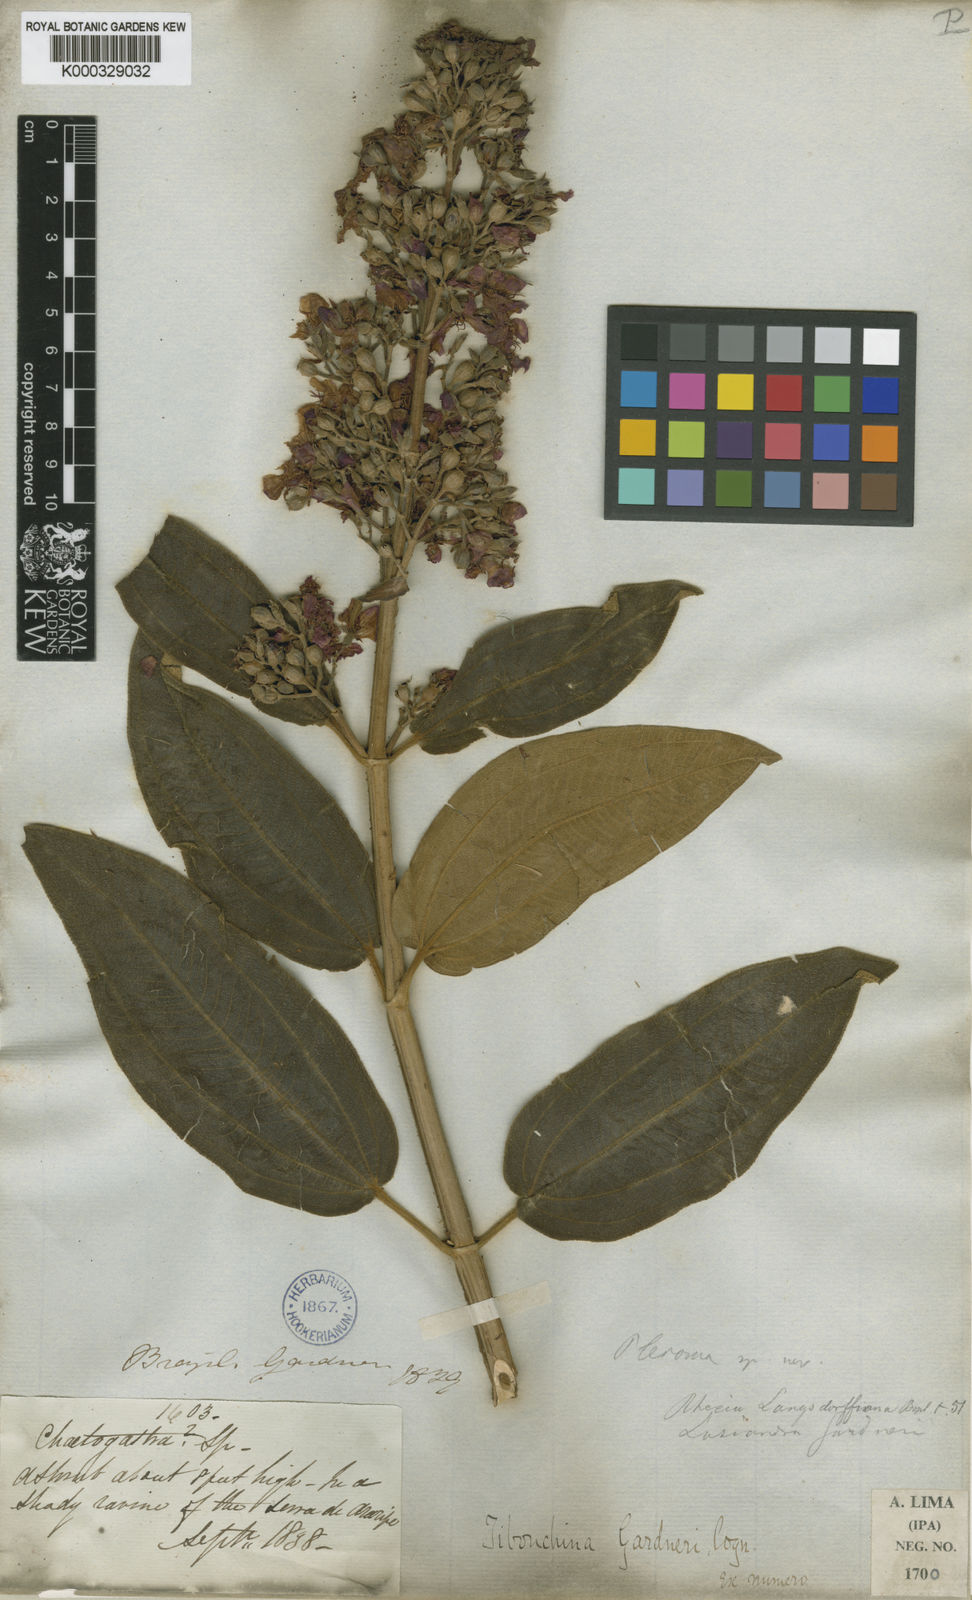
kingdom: Plantae
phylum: Tracheophyta
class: Magnoliopsida
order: Myrtales
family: Melastomataceae
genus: Pleroma
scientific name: Pleroma gardneri
